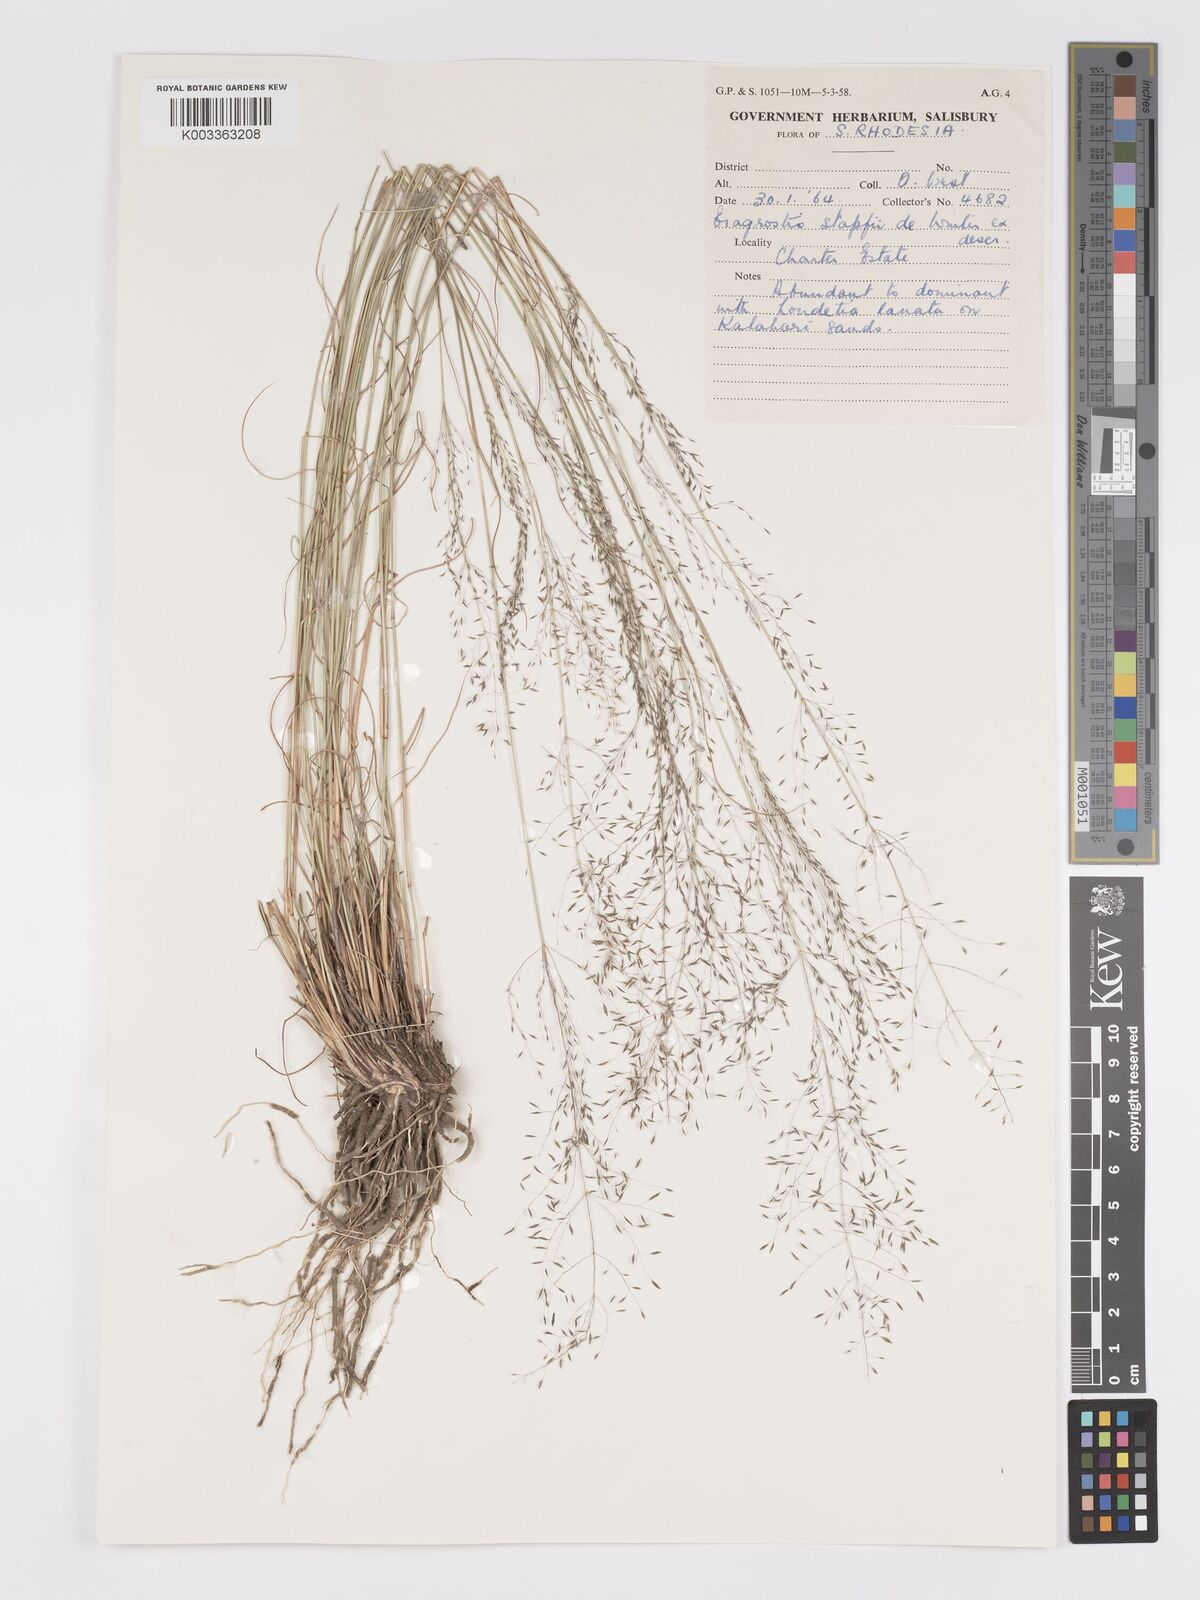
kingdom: Plantae
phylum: Tracheophyta
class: Liliopsida
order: Poales
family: Poaceae
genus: Eragrostis
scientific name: Eragrostis stapfii
